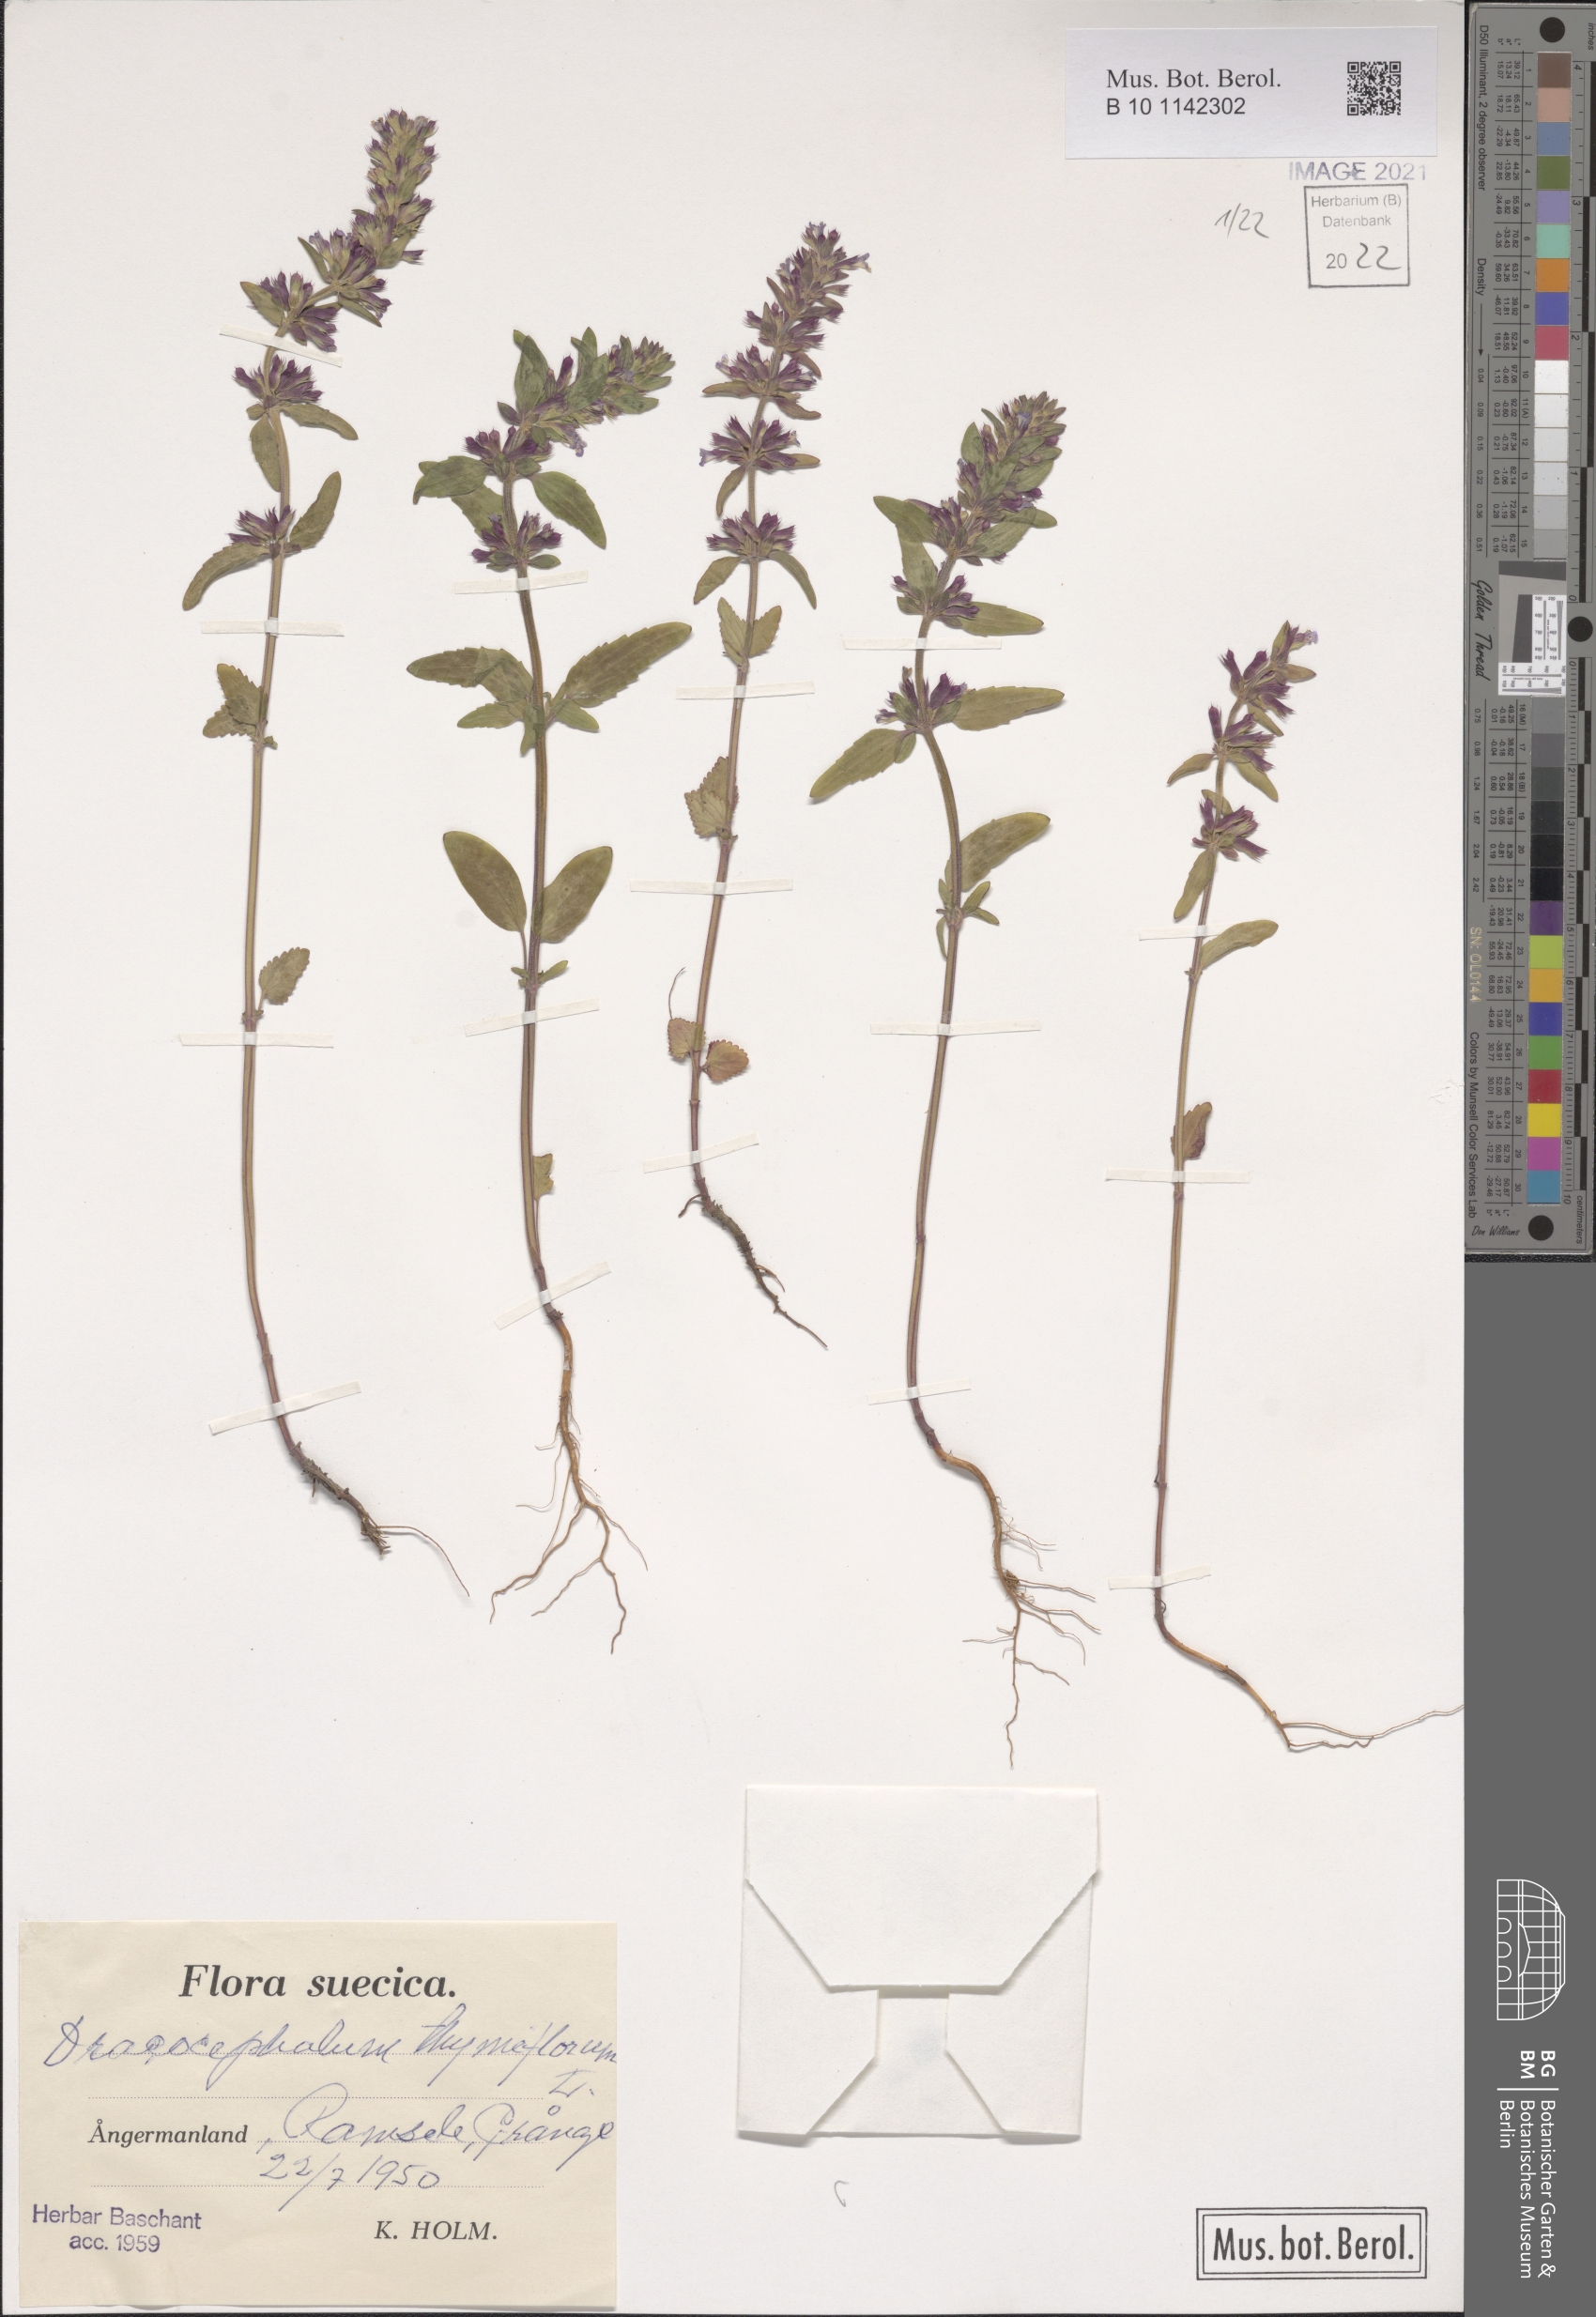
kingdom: Plantae
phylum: Tracheophyta
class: Magnoliopsida
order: Lamiales
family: Lamiaceae
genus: Dracocephalum
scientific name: Dracocephalum thymiflorum
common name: Thymeleaf dragonhead
